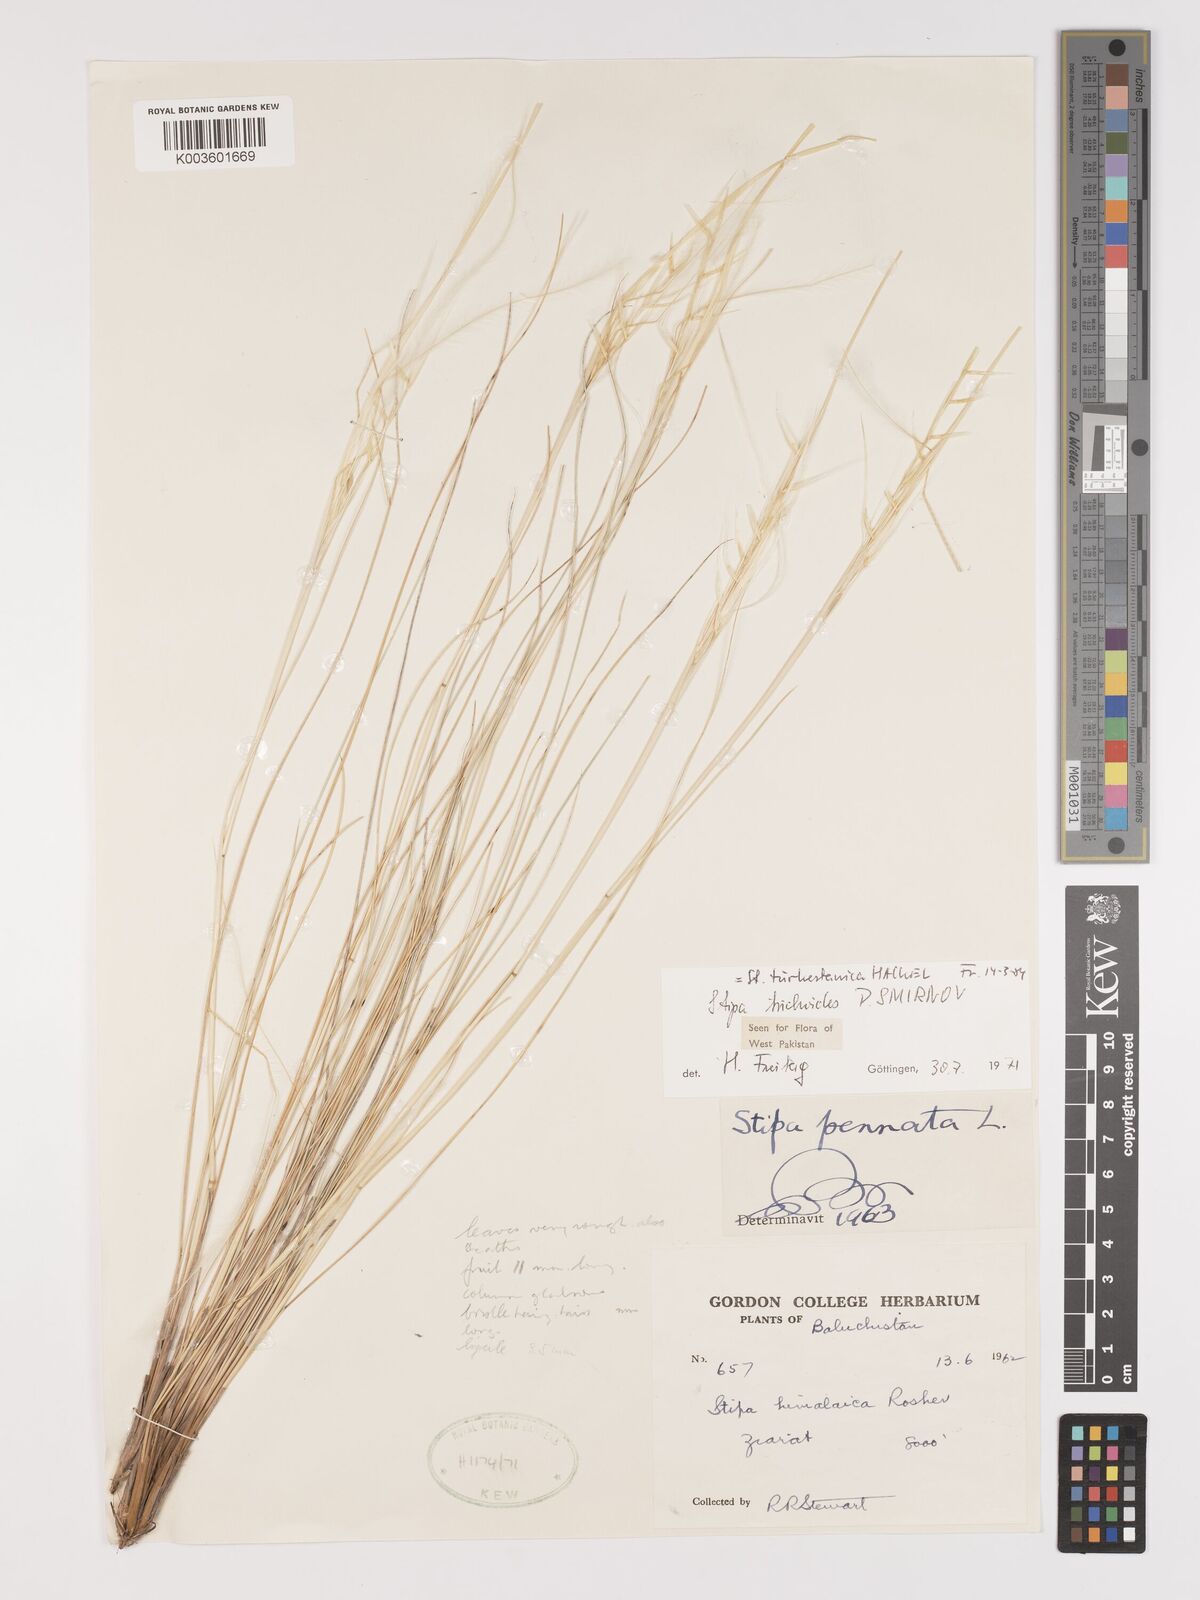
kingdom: Plantae
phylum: Tracheophyta
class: Liliopsida
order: Poales
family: Poaceae
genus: Stipa
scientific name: Stipa turkestanica
